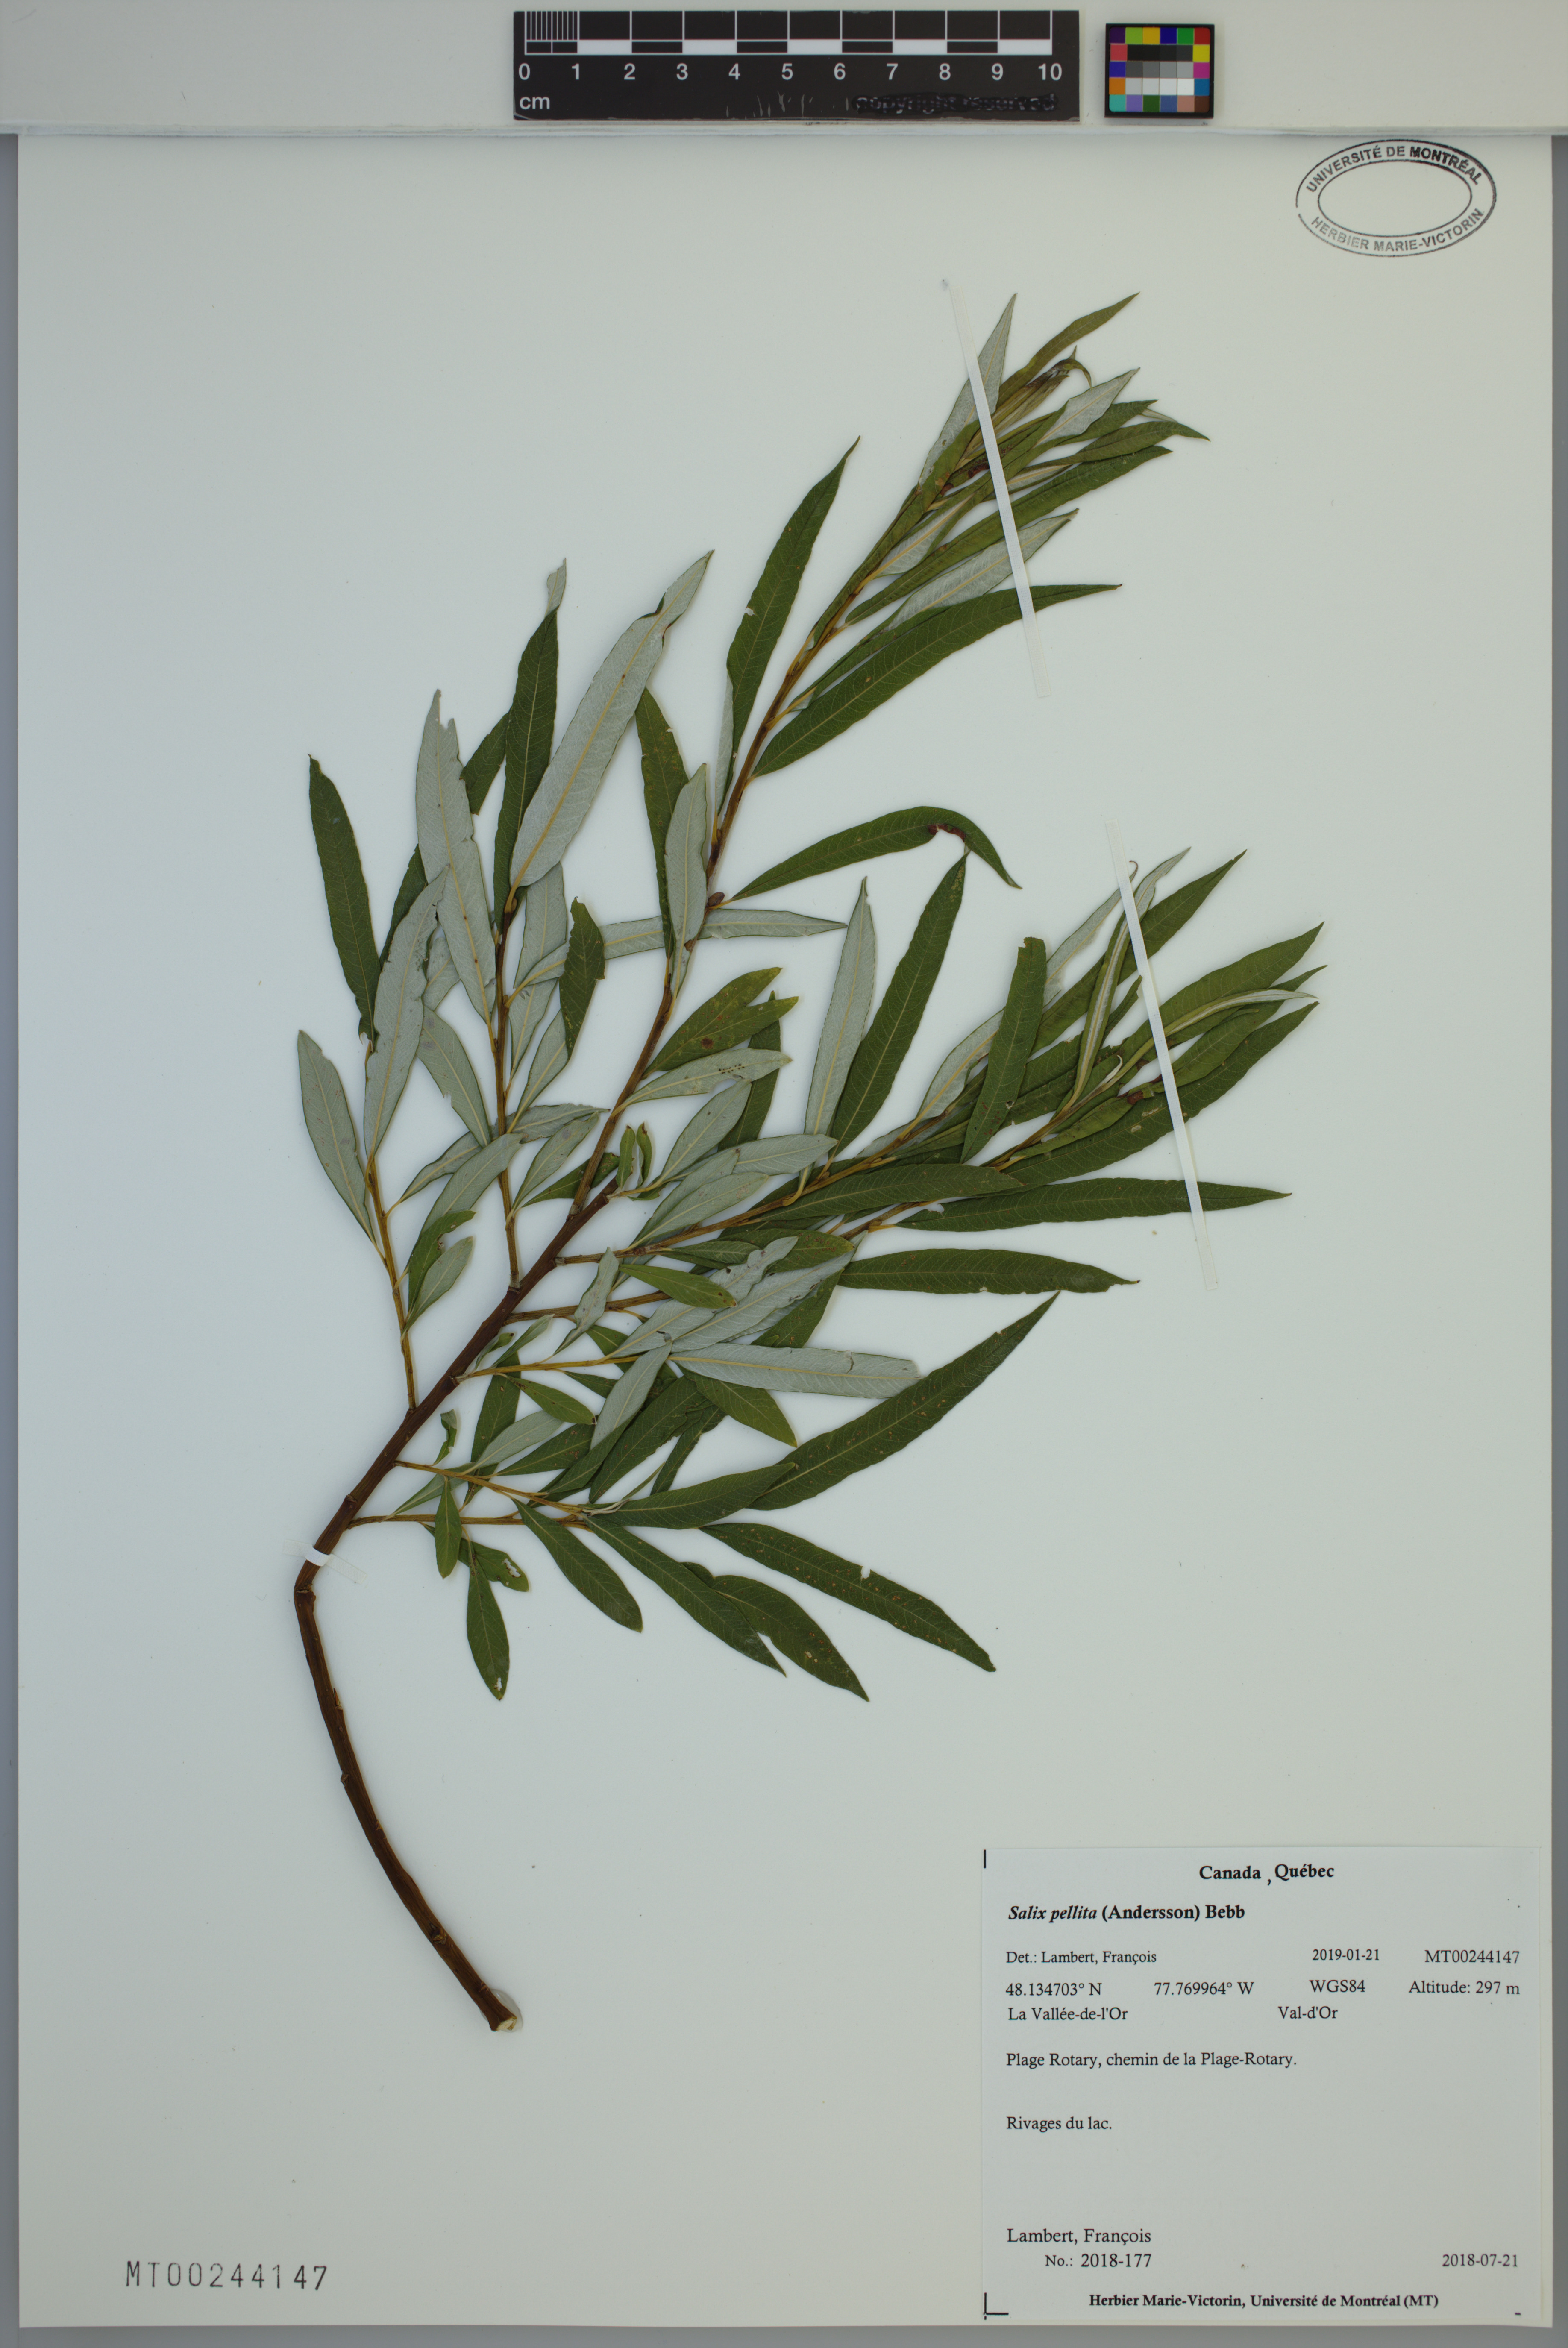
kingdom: Plantae
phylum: Tracheophyta
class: Magnoliopsida
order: Malpighiales
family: Salicaceae
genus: Salix
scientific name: Salix pellita
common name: Satiny willow
